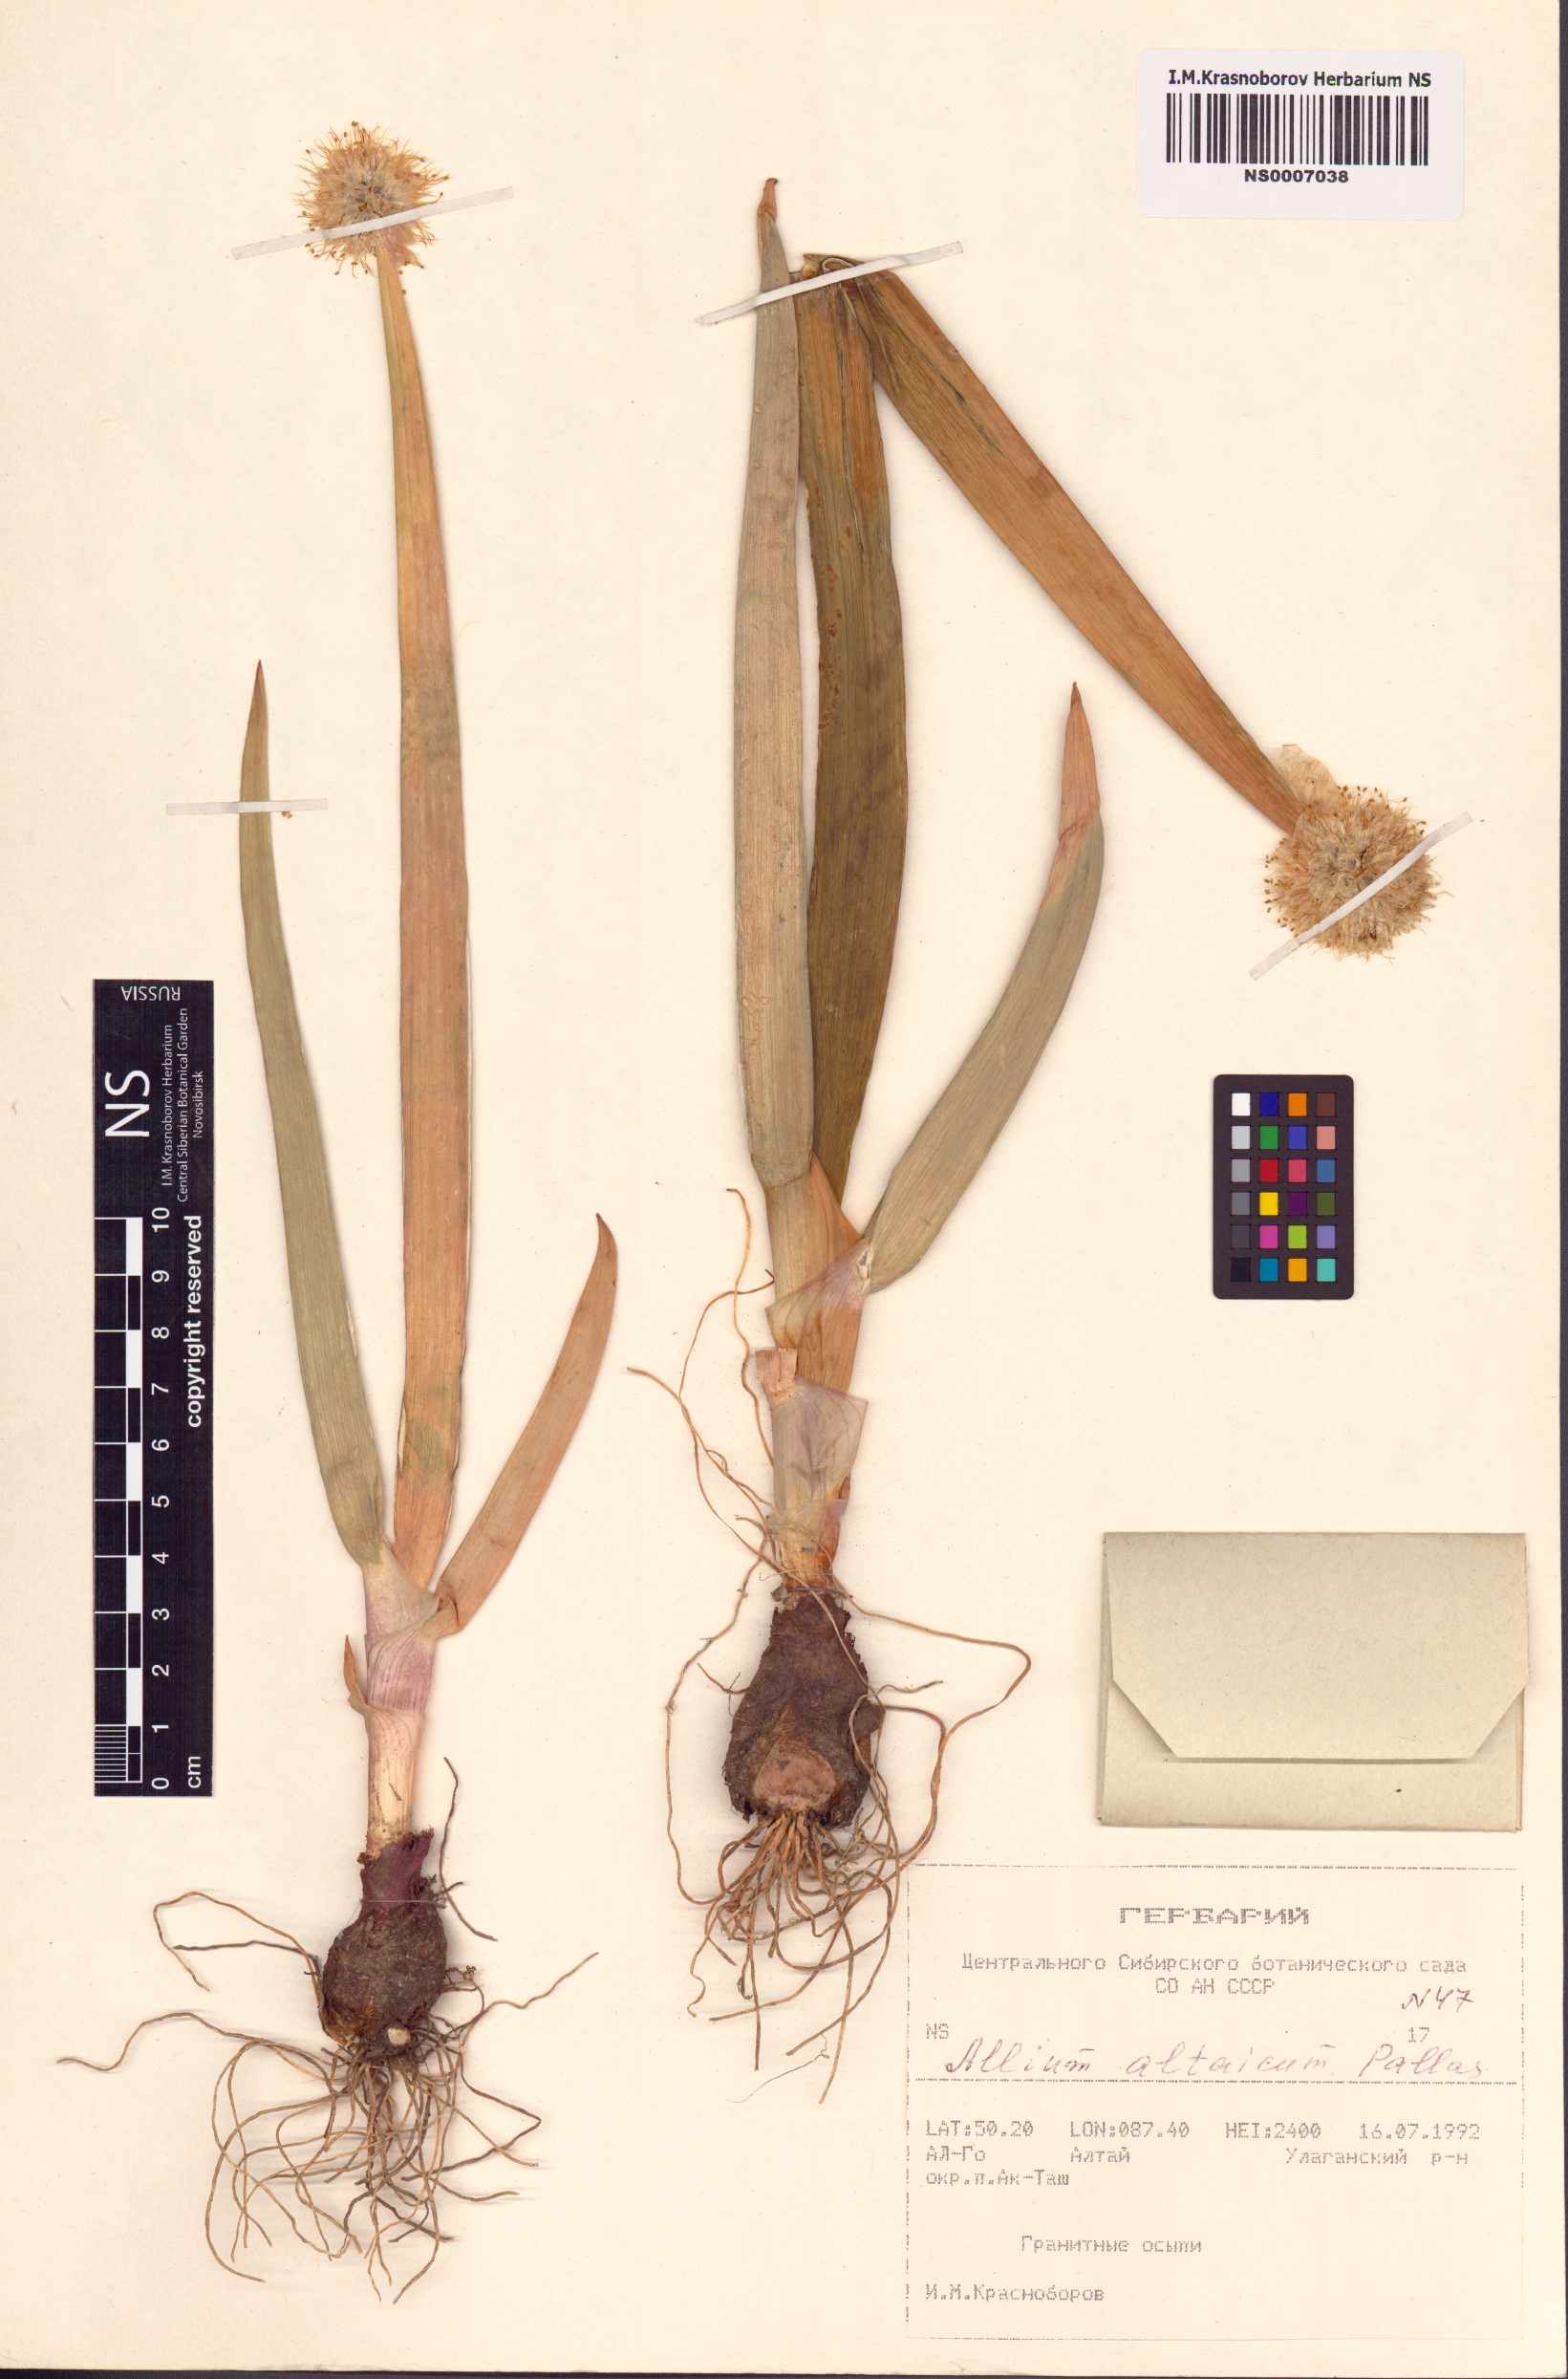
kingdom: Plantae
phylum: Tracheophyta
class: Liliopsida
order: Asparagales
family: Amaryllidaceae
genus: Allium
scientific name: Allium altaicum
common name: Altai onion
